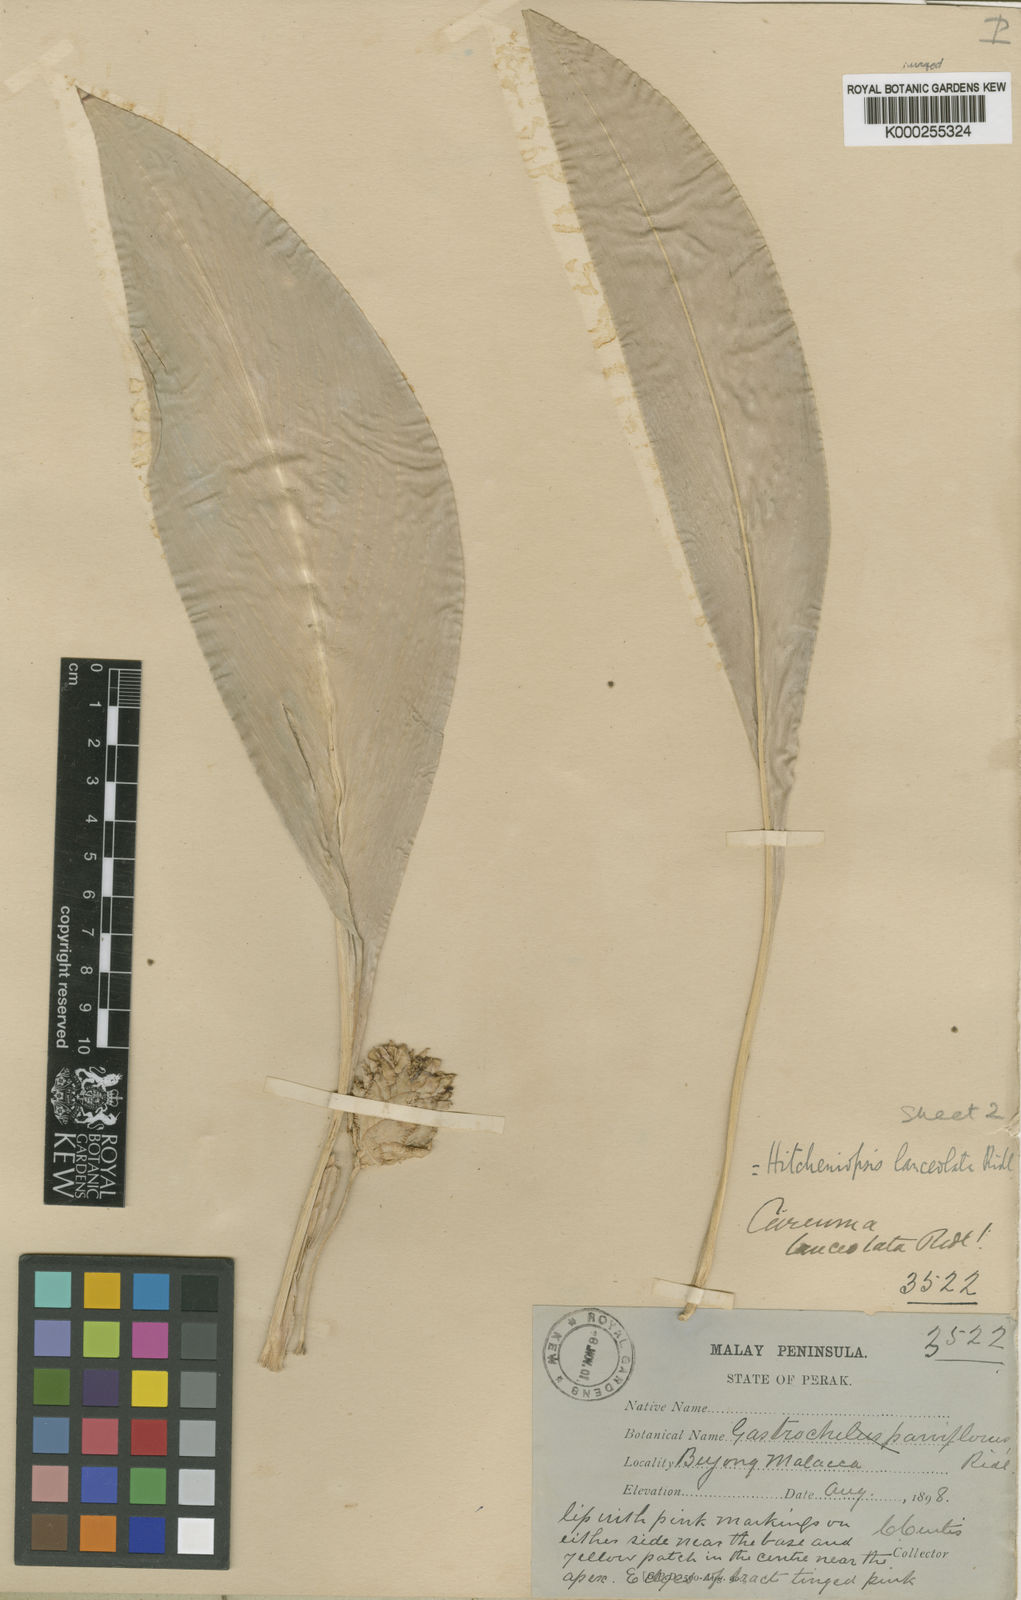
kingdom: Plantae
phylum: Tracheophyta
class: Liliopsida
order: Zingiberales
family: Zingiberaceae
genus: Scaphochlamys
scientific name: Scaphochlamys perakensis
